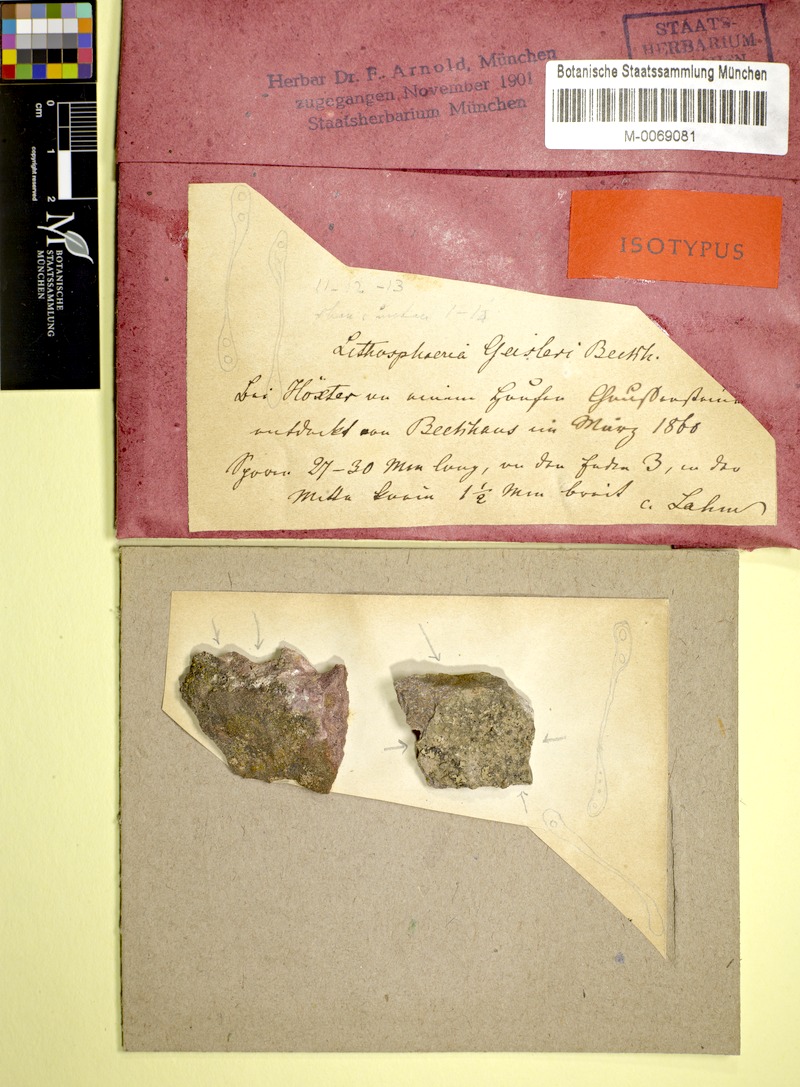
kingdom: Fungi
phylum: Ascomycota
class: Sordariomycetes
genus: Sarcopyrenia
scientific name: Sarcopyrenia gibba
